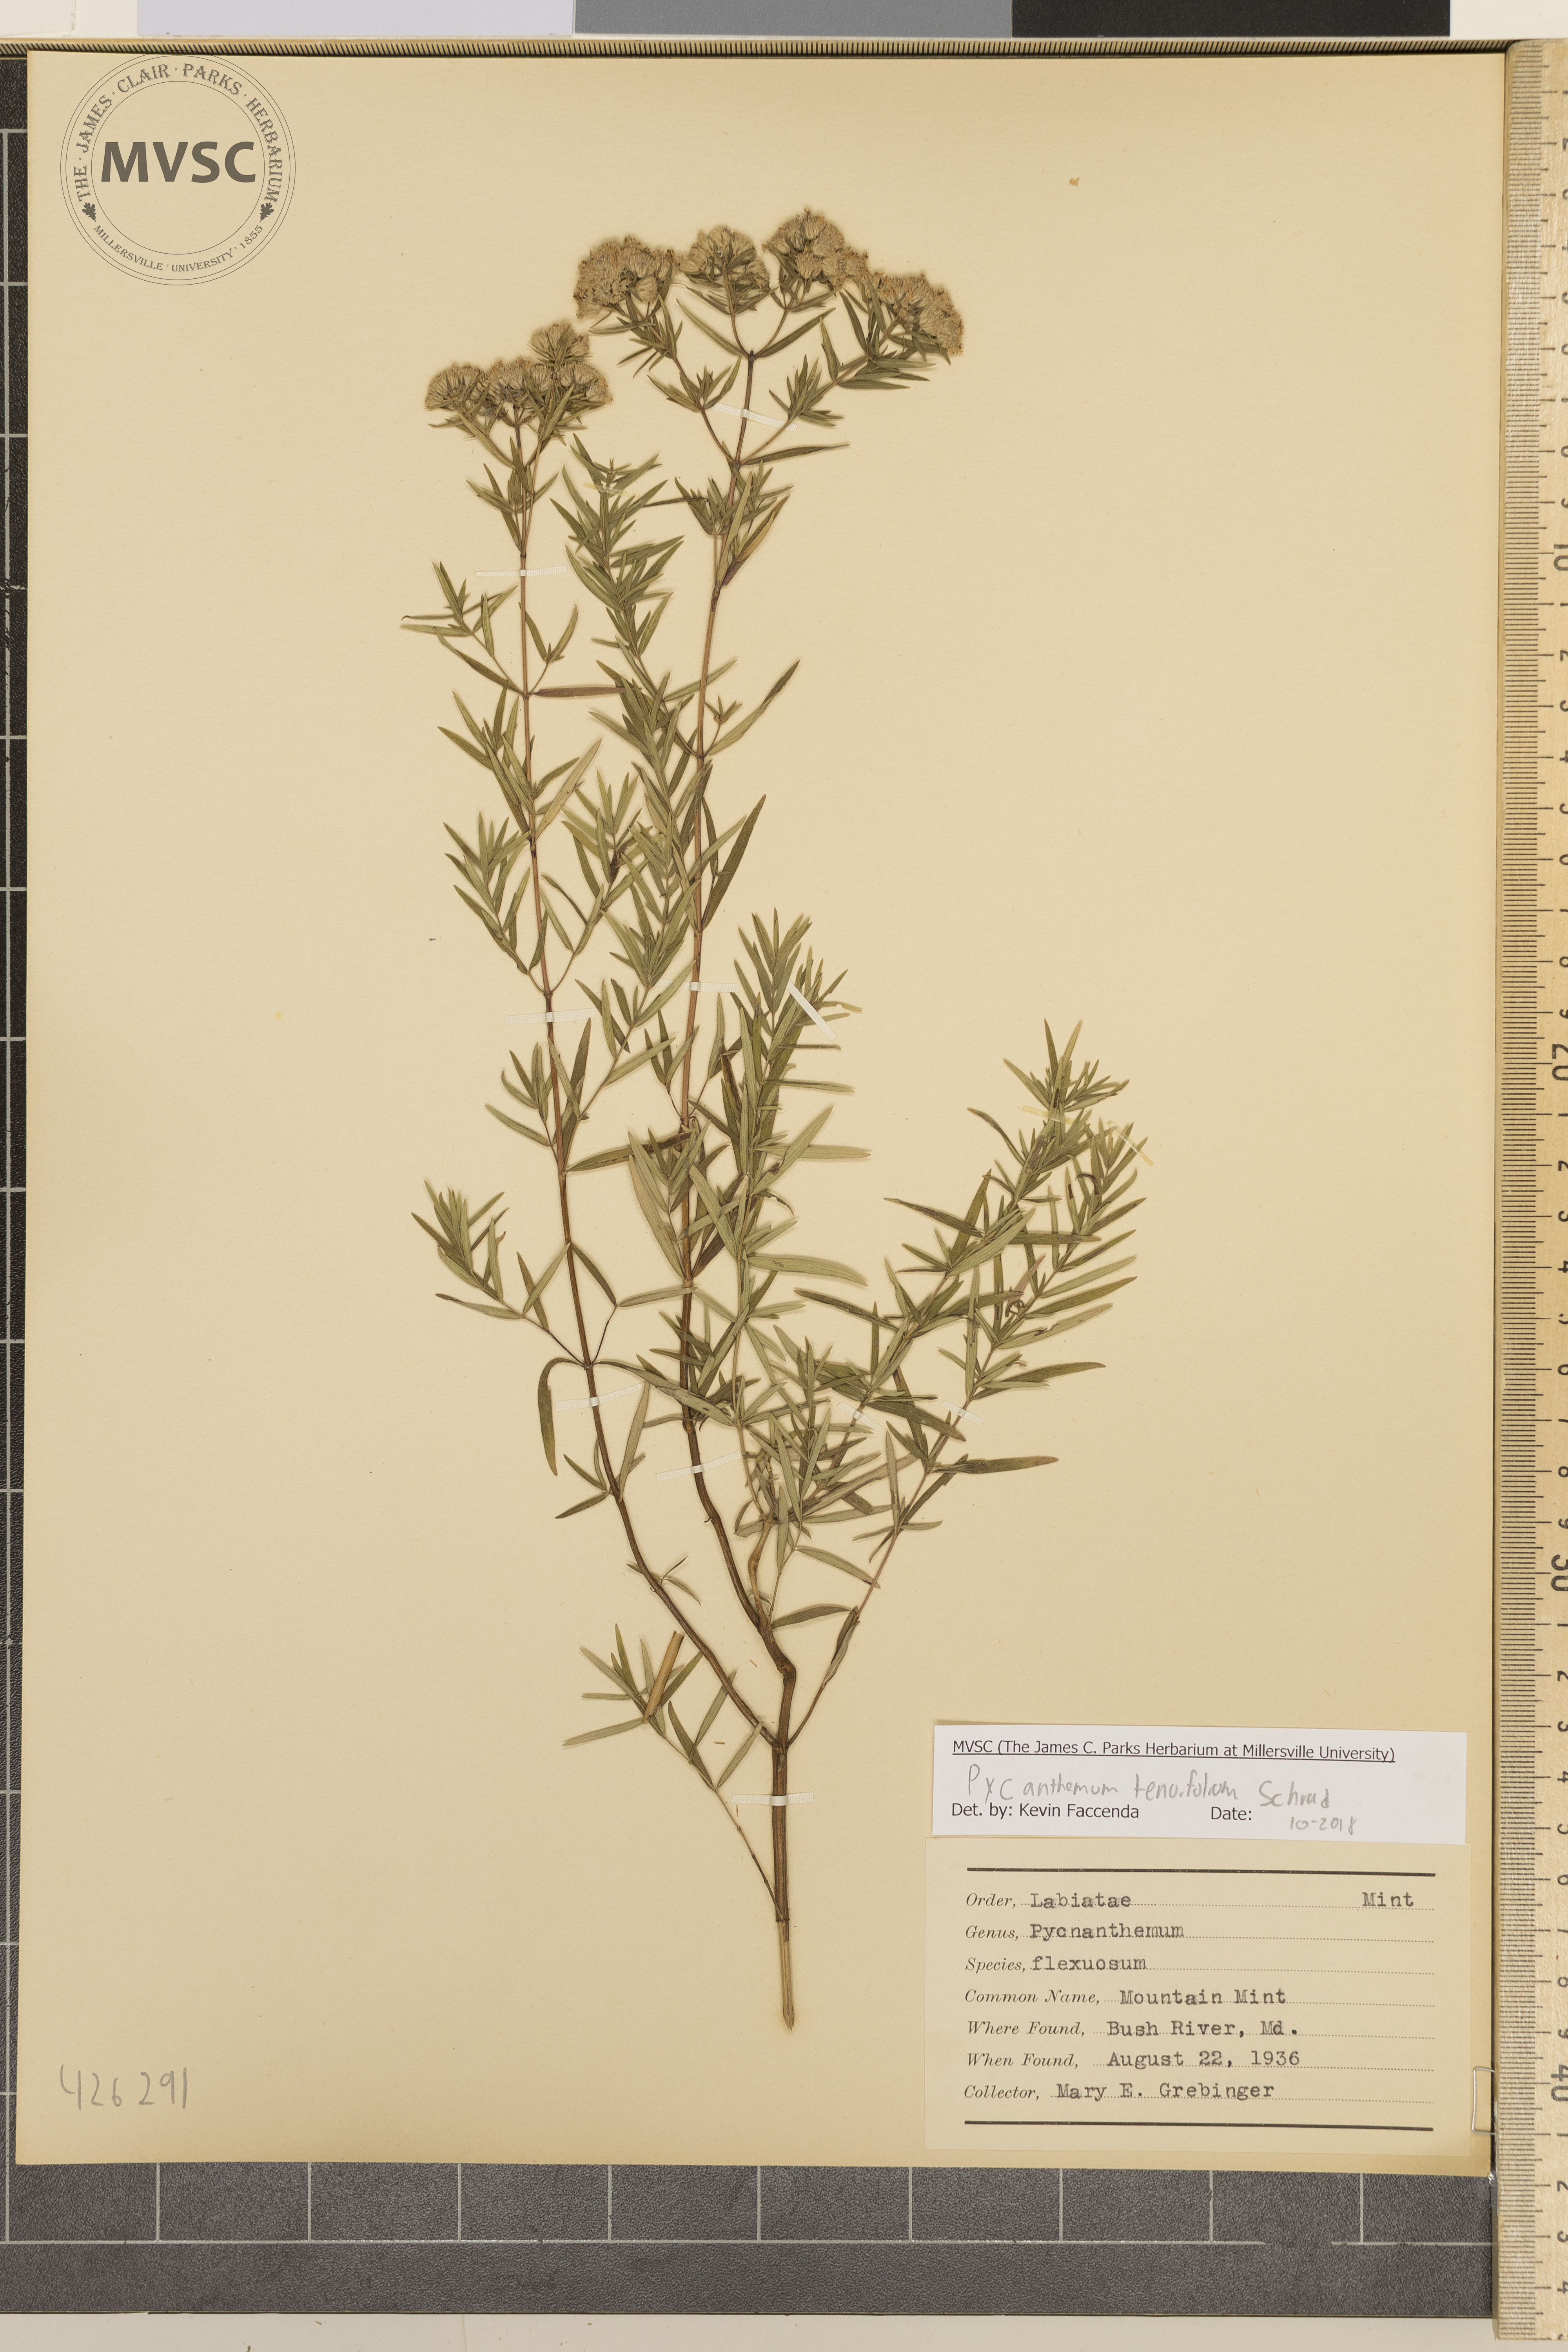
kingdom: Plantae
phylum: Tracheophyta
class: Magnoliopsida
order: Lamiales
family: Lamiaceae
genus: Pycnanthemum
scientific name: Pycnanthemum tenuifolium
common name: Mountain mint
